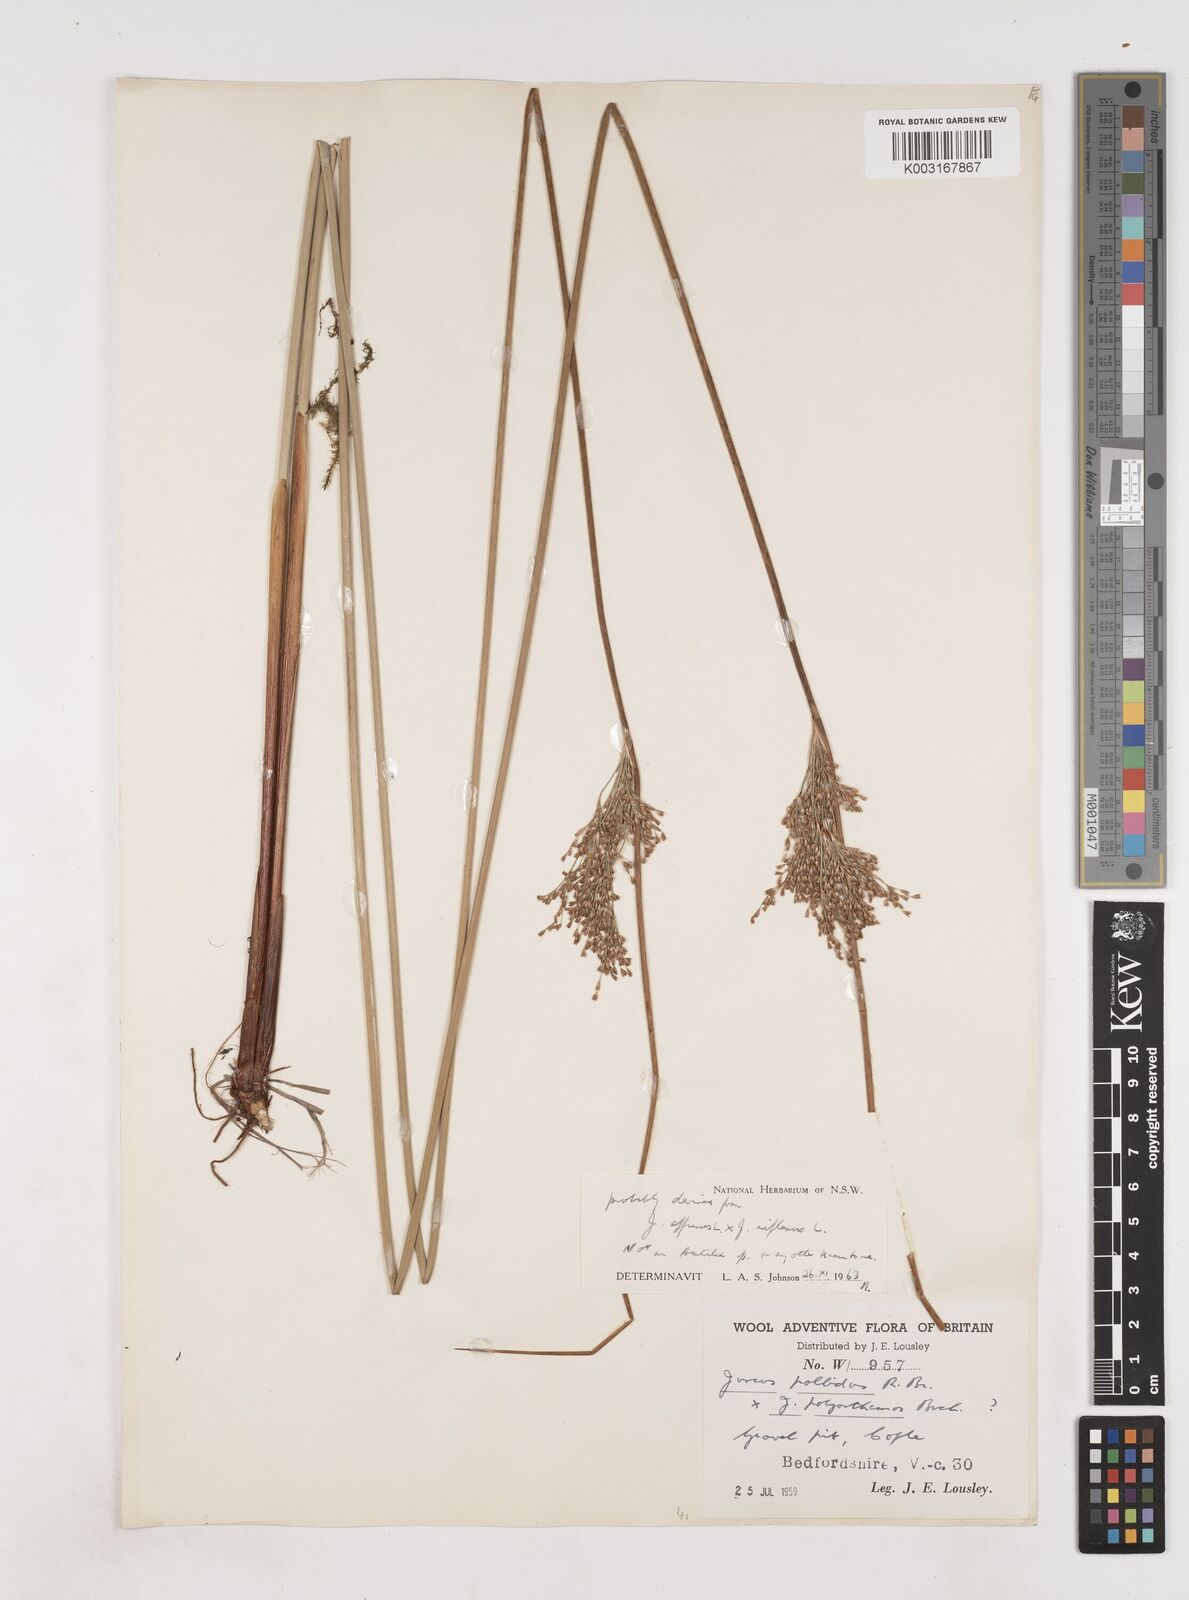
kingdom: Plantae
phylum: Tracheophyta
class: Liliopsida
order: Poales
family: Juncaceae
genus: Juncus
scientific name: Juncus effusus
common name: Soft rush
